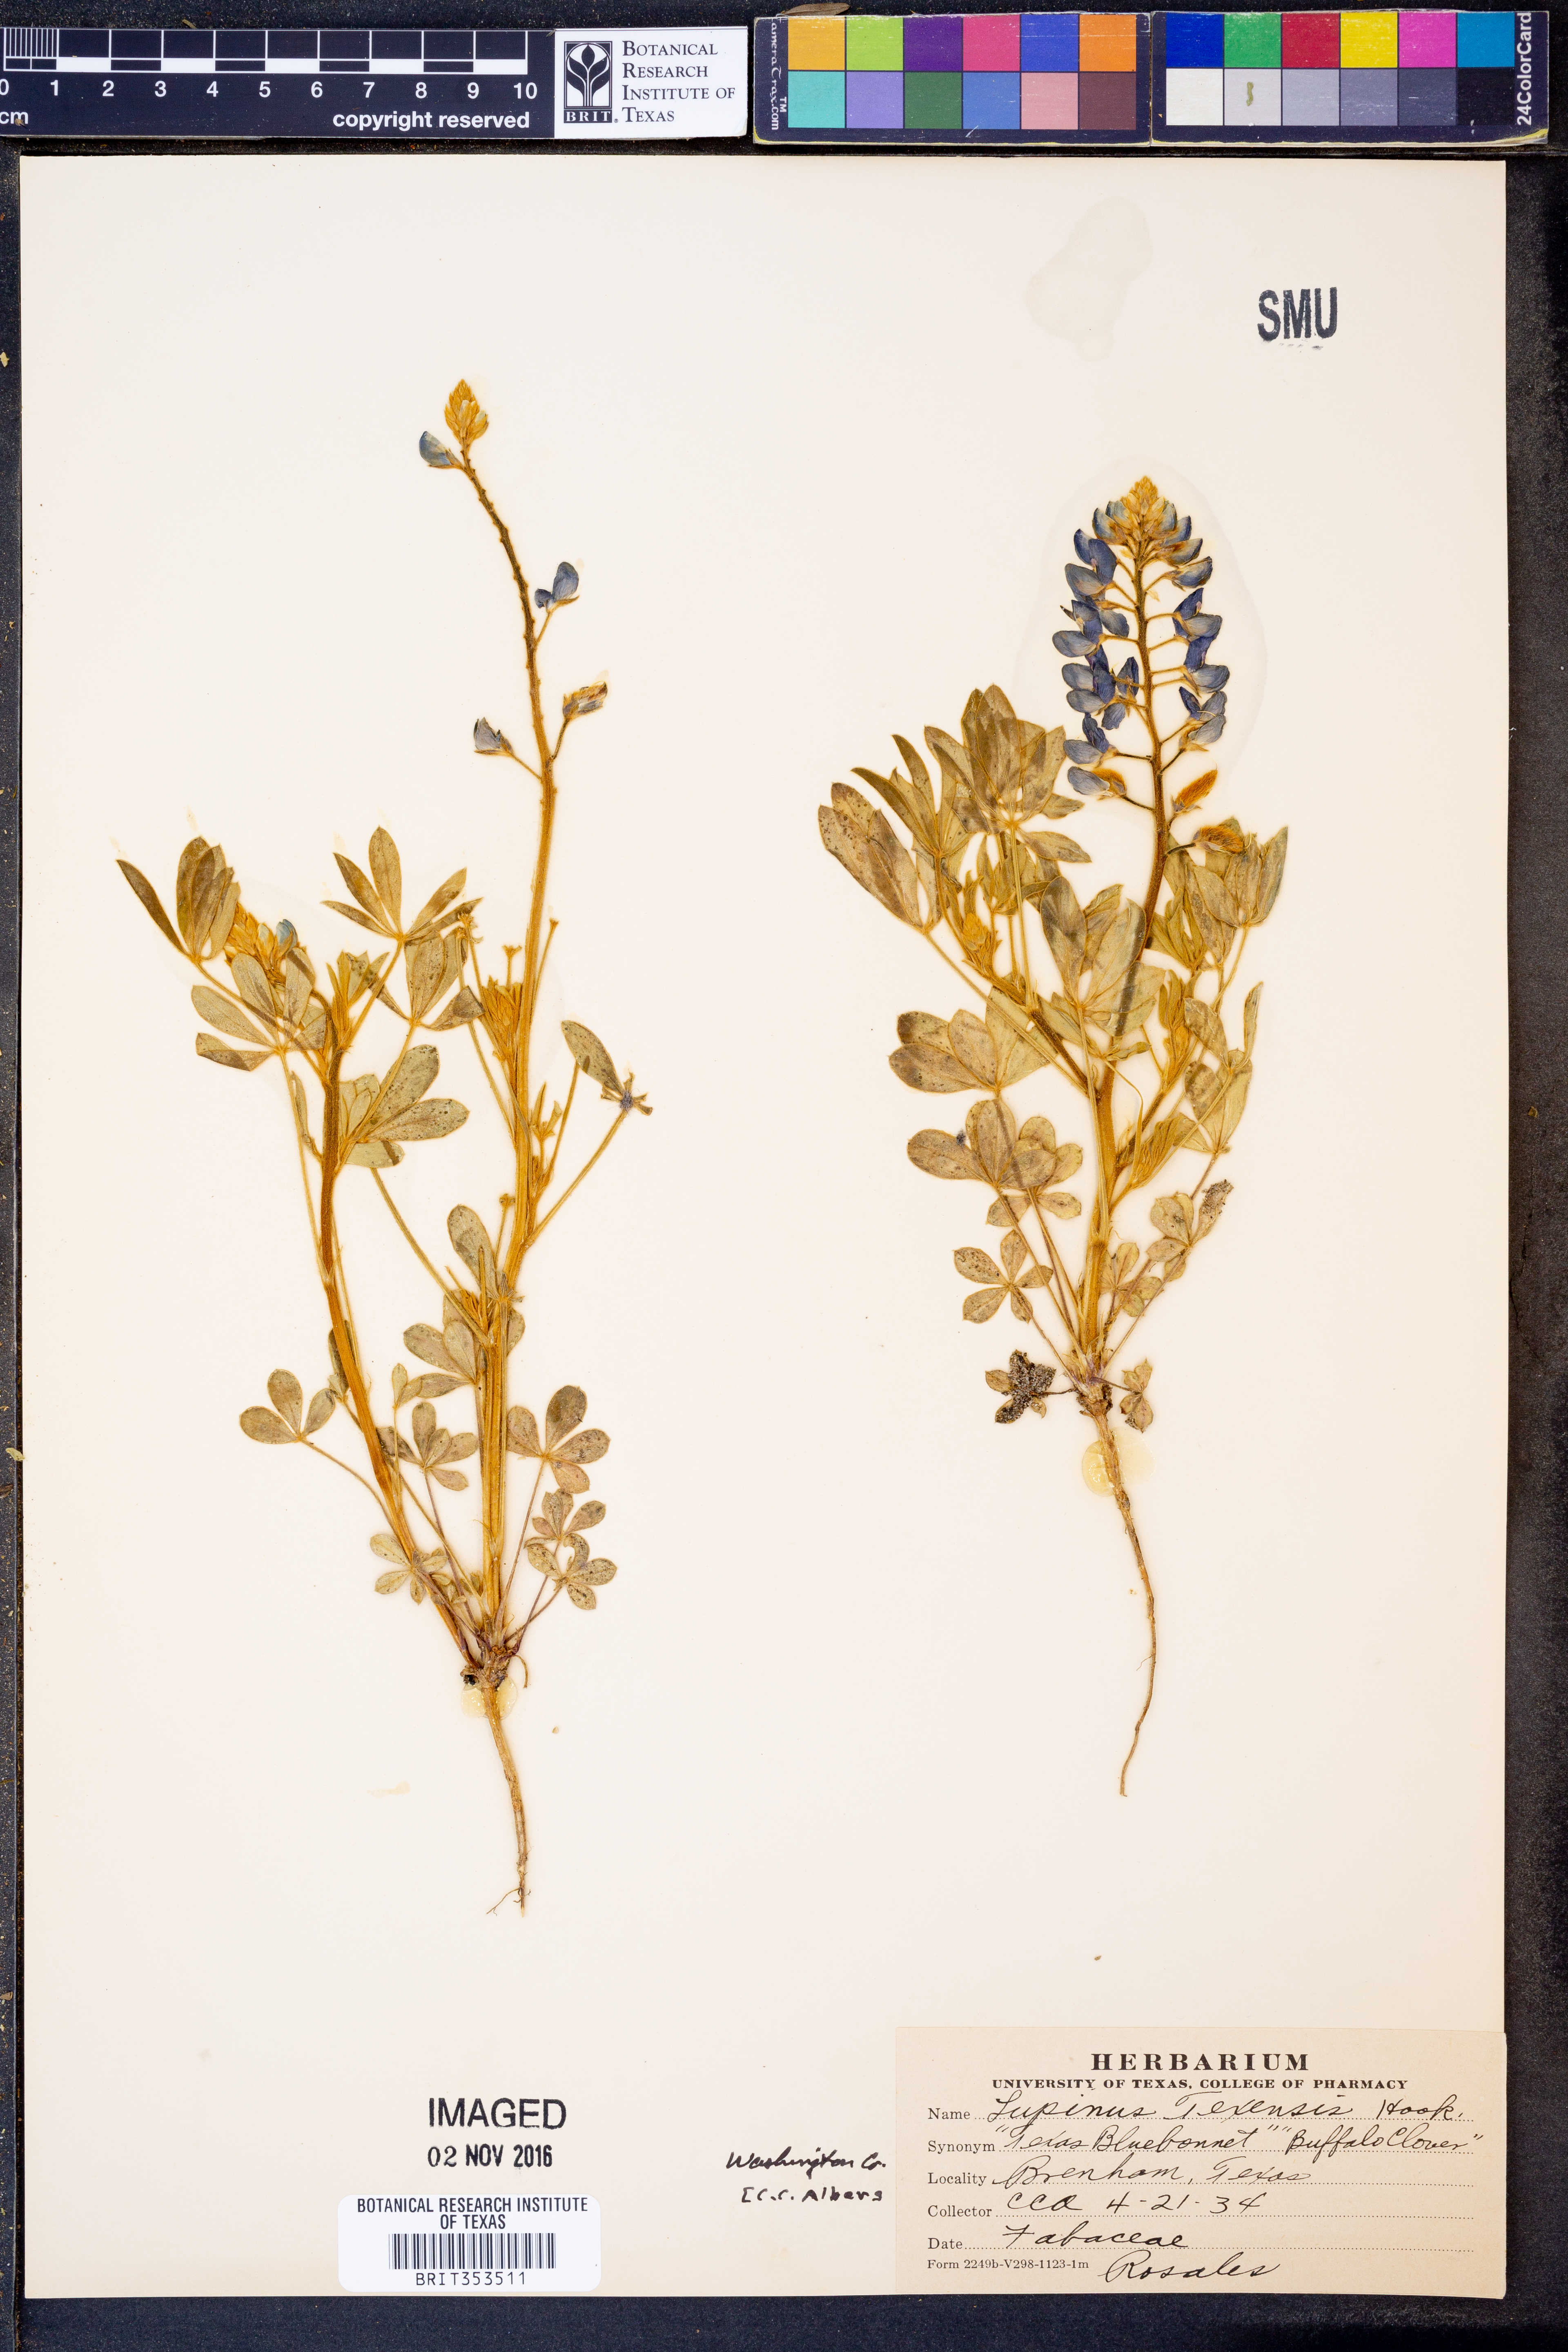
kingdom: Plantae
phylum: Tracheophyta
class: Magnoliopsida
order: Fabales
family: Fabaceae
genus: Lupinus
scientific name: Lupinus texensis
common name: Texas bluebonnet
